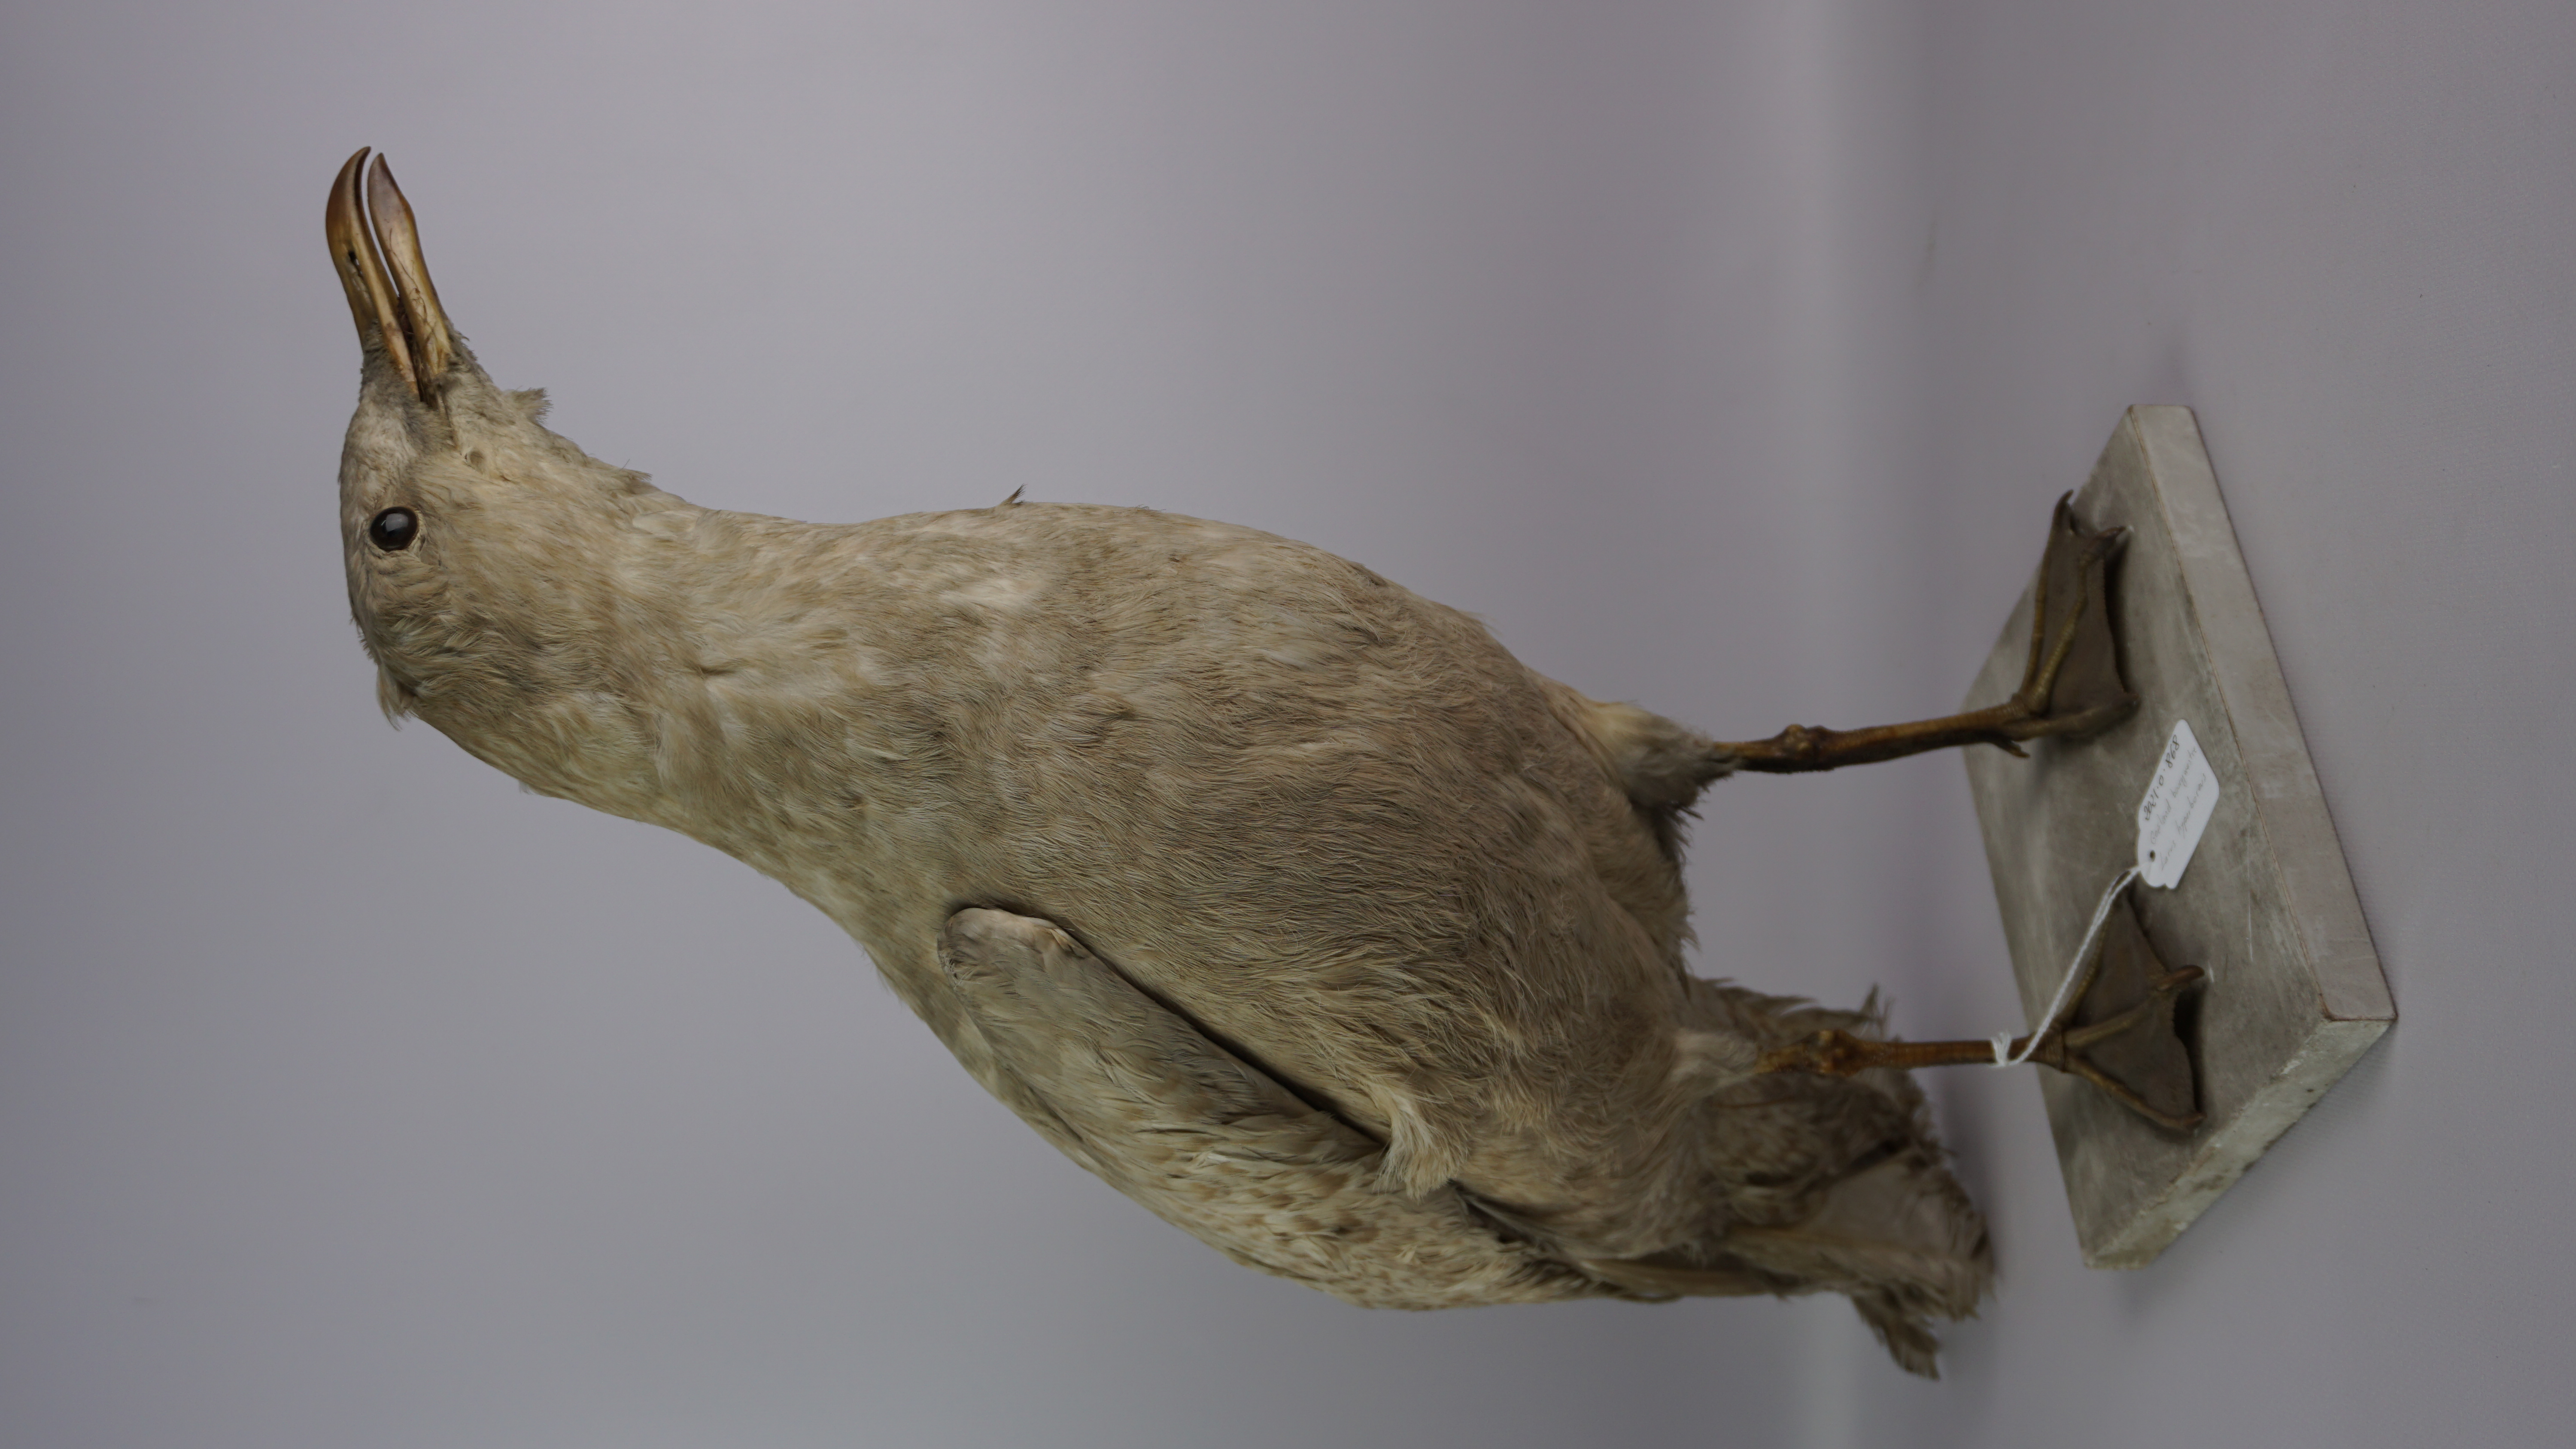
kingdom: Animalia
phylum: Chordata
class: Aves
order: Charadriiformes
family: Laridae
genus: Larus
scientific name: Larus hyperboreus
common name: Glaucous gull
